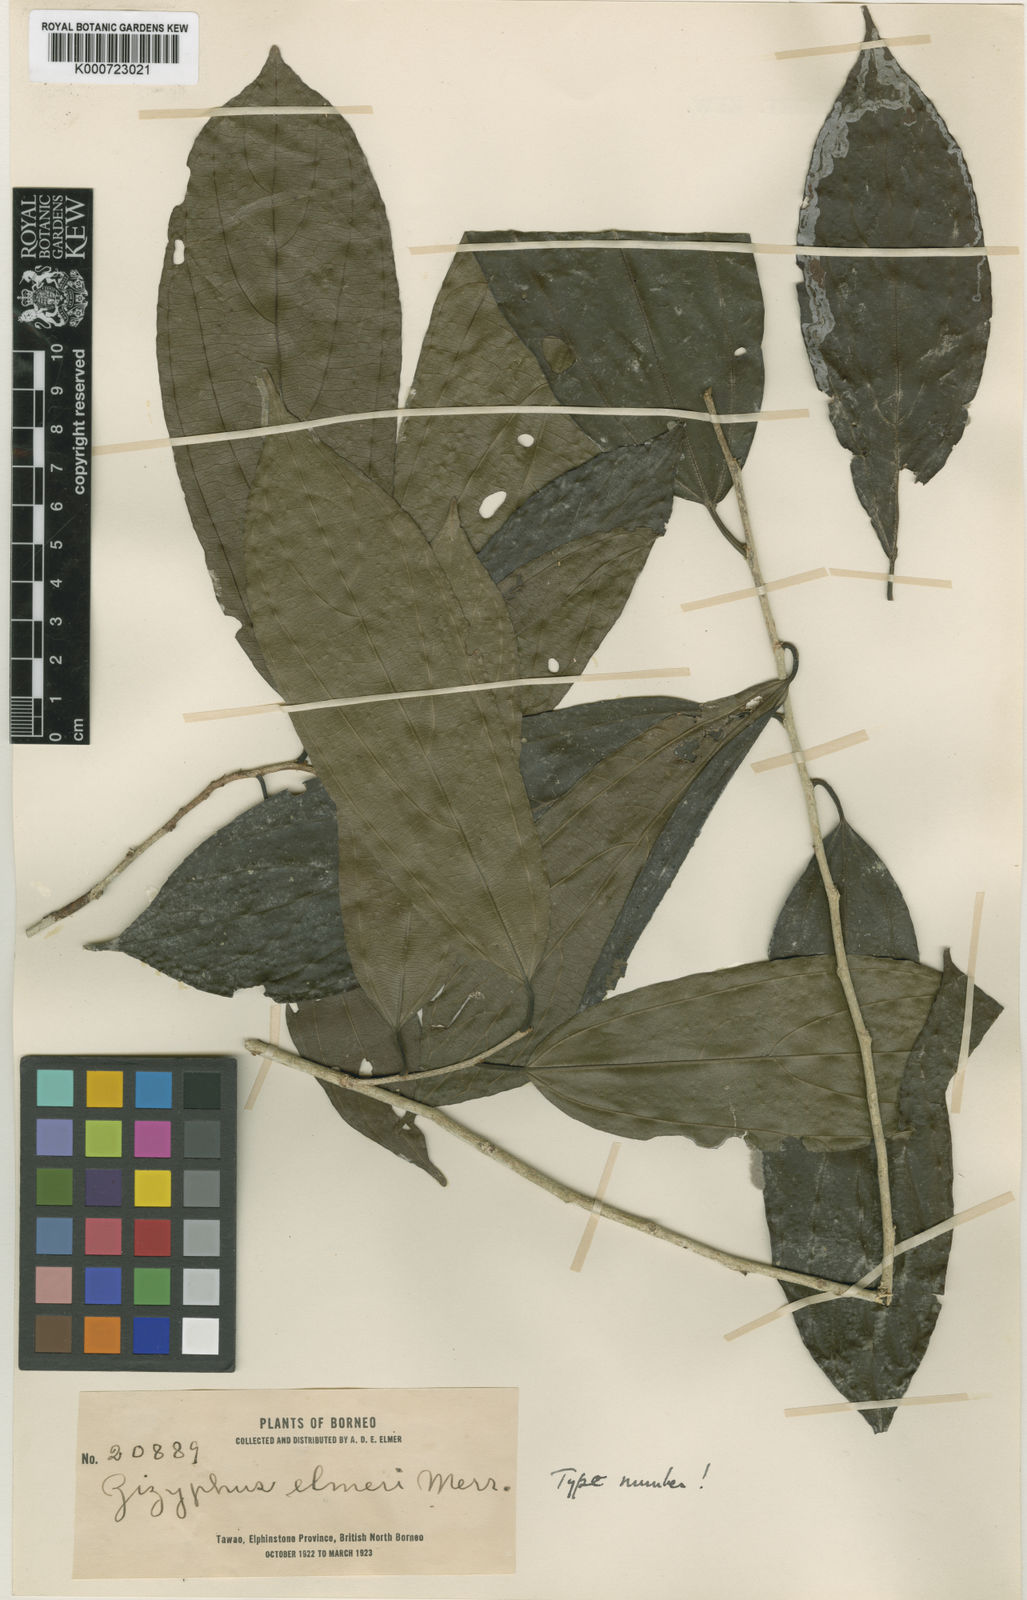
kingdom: Plantae
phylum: Tracheophyta
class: Magnoliopsida
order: Rosales
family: Rhamnaceae
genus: Colubrina
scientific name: Colubrina beccariana
